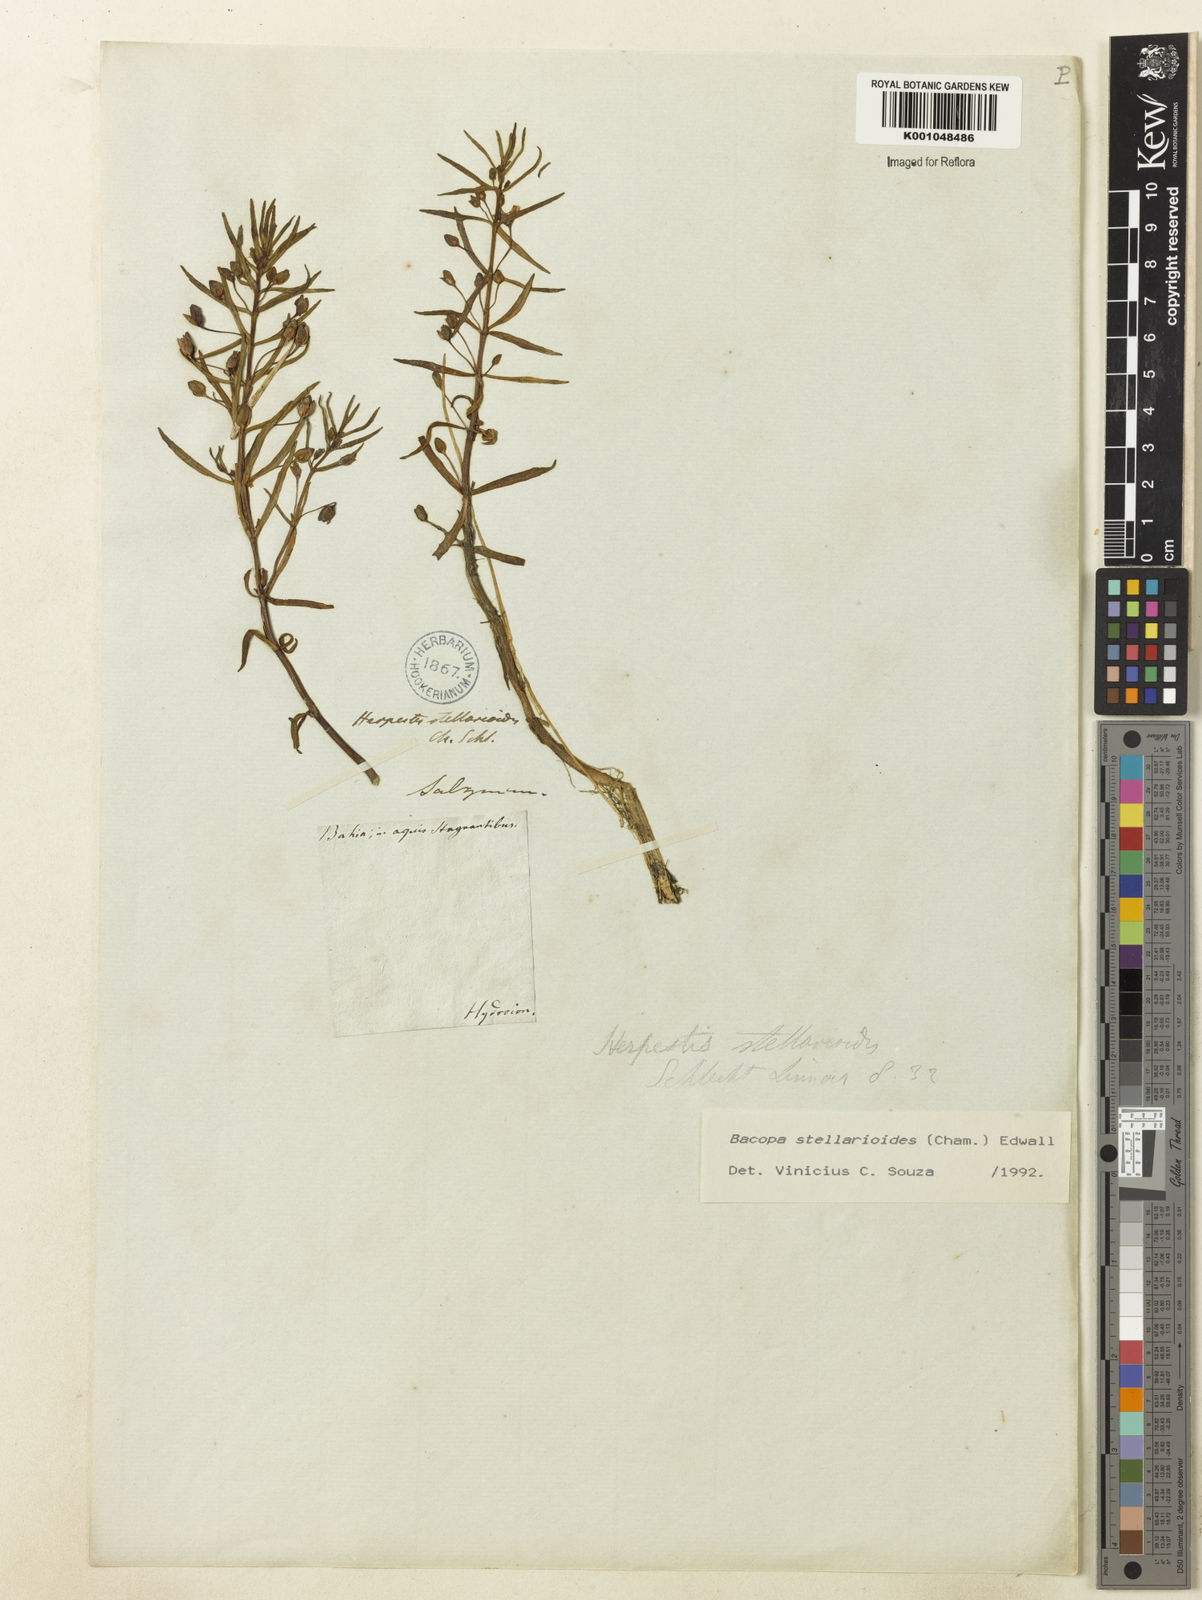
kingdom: Plantae
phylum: Tracheophyta
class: Magnoliopsida
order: Lamiales
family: Plantaginaceae
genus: Bacopa
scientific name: Bacopa aquatica
